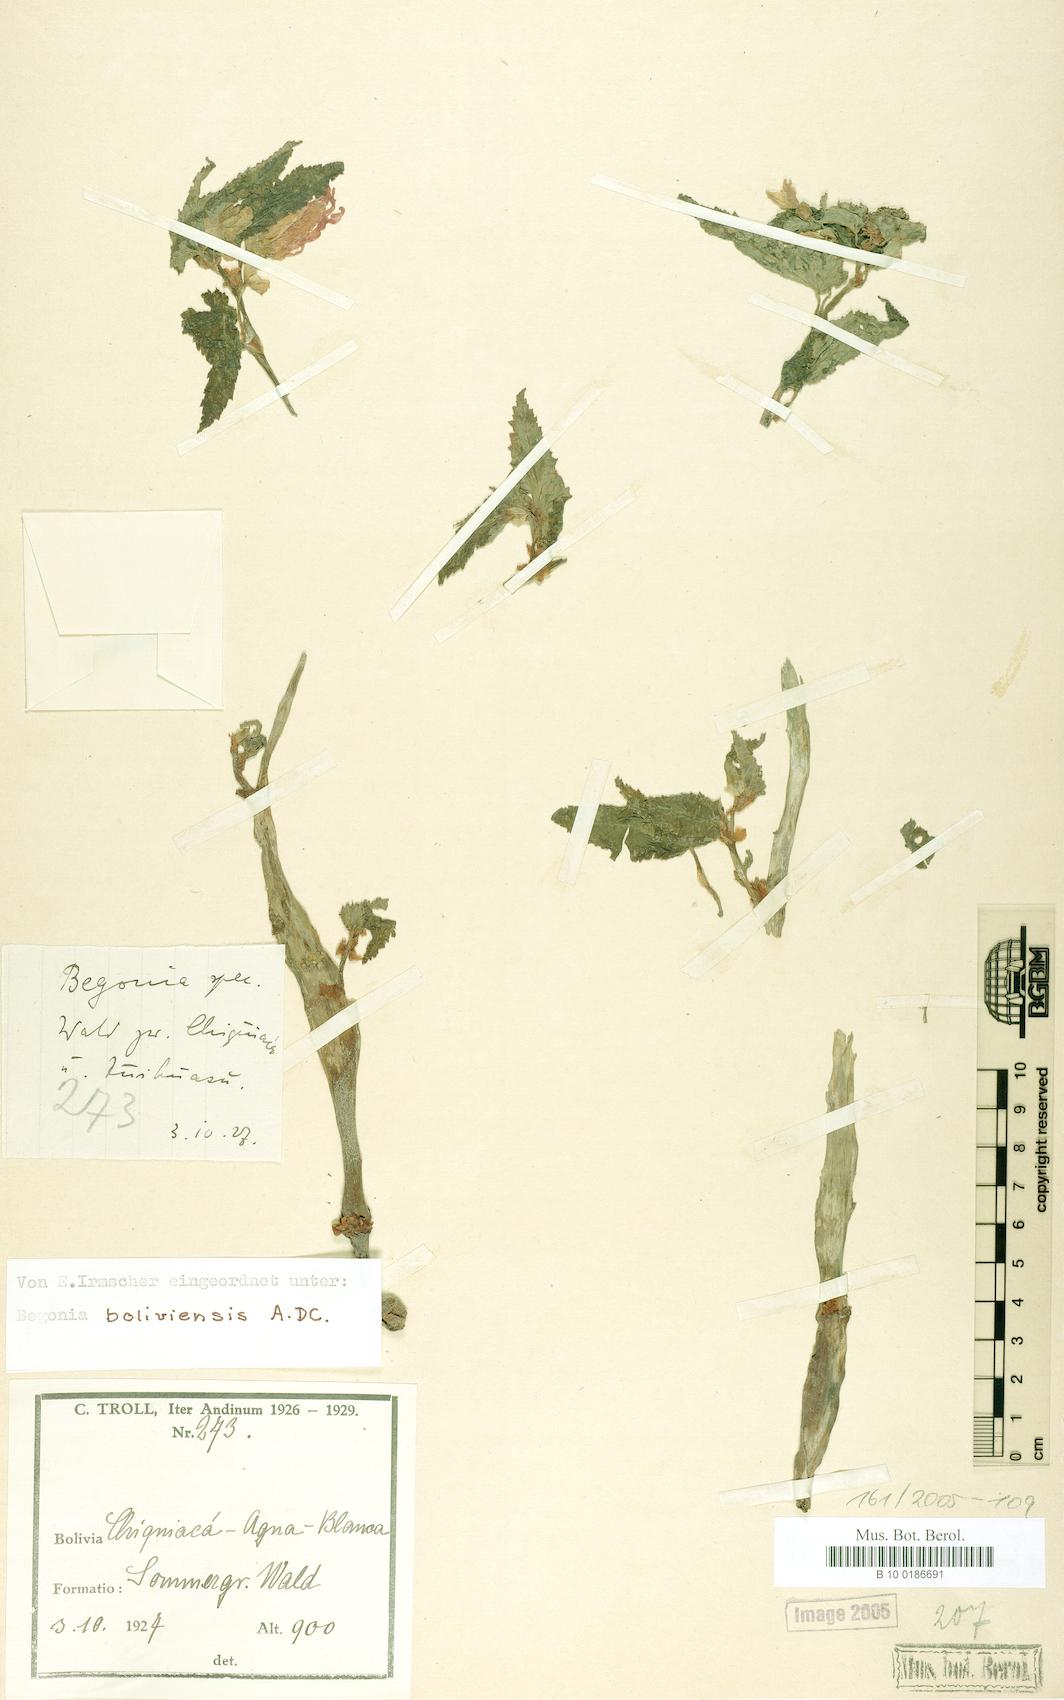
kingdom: Plantae
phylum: Tracheophyta
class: Magnoliopsida
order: Cucurbitales
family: Begoniaceae
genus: Begonia
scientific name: Begonia boliviensis
